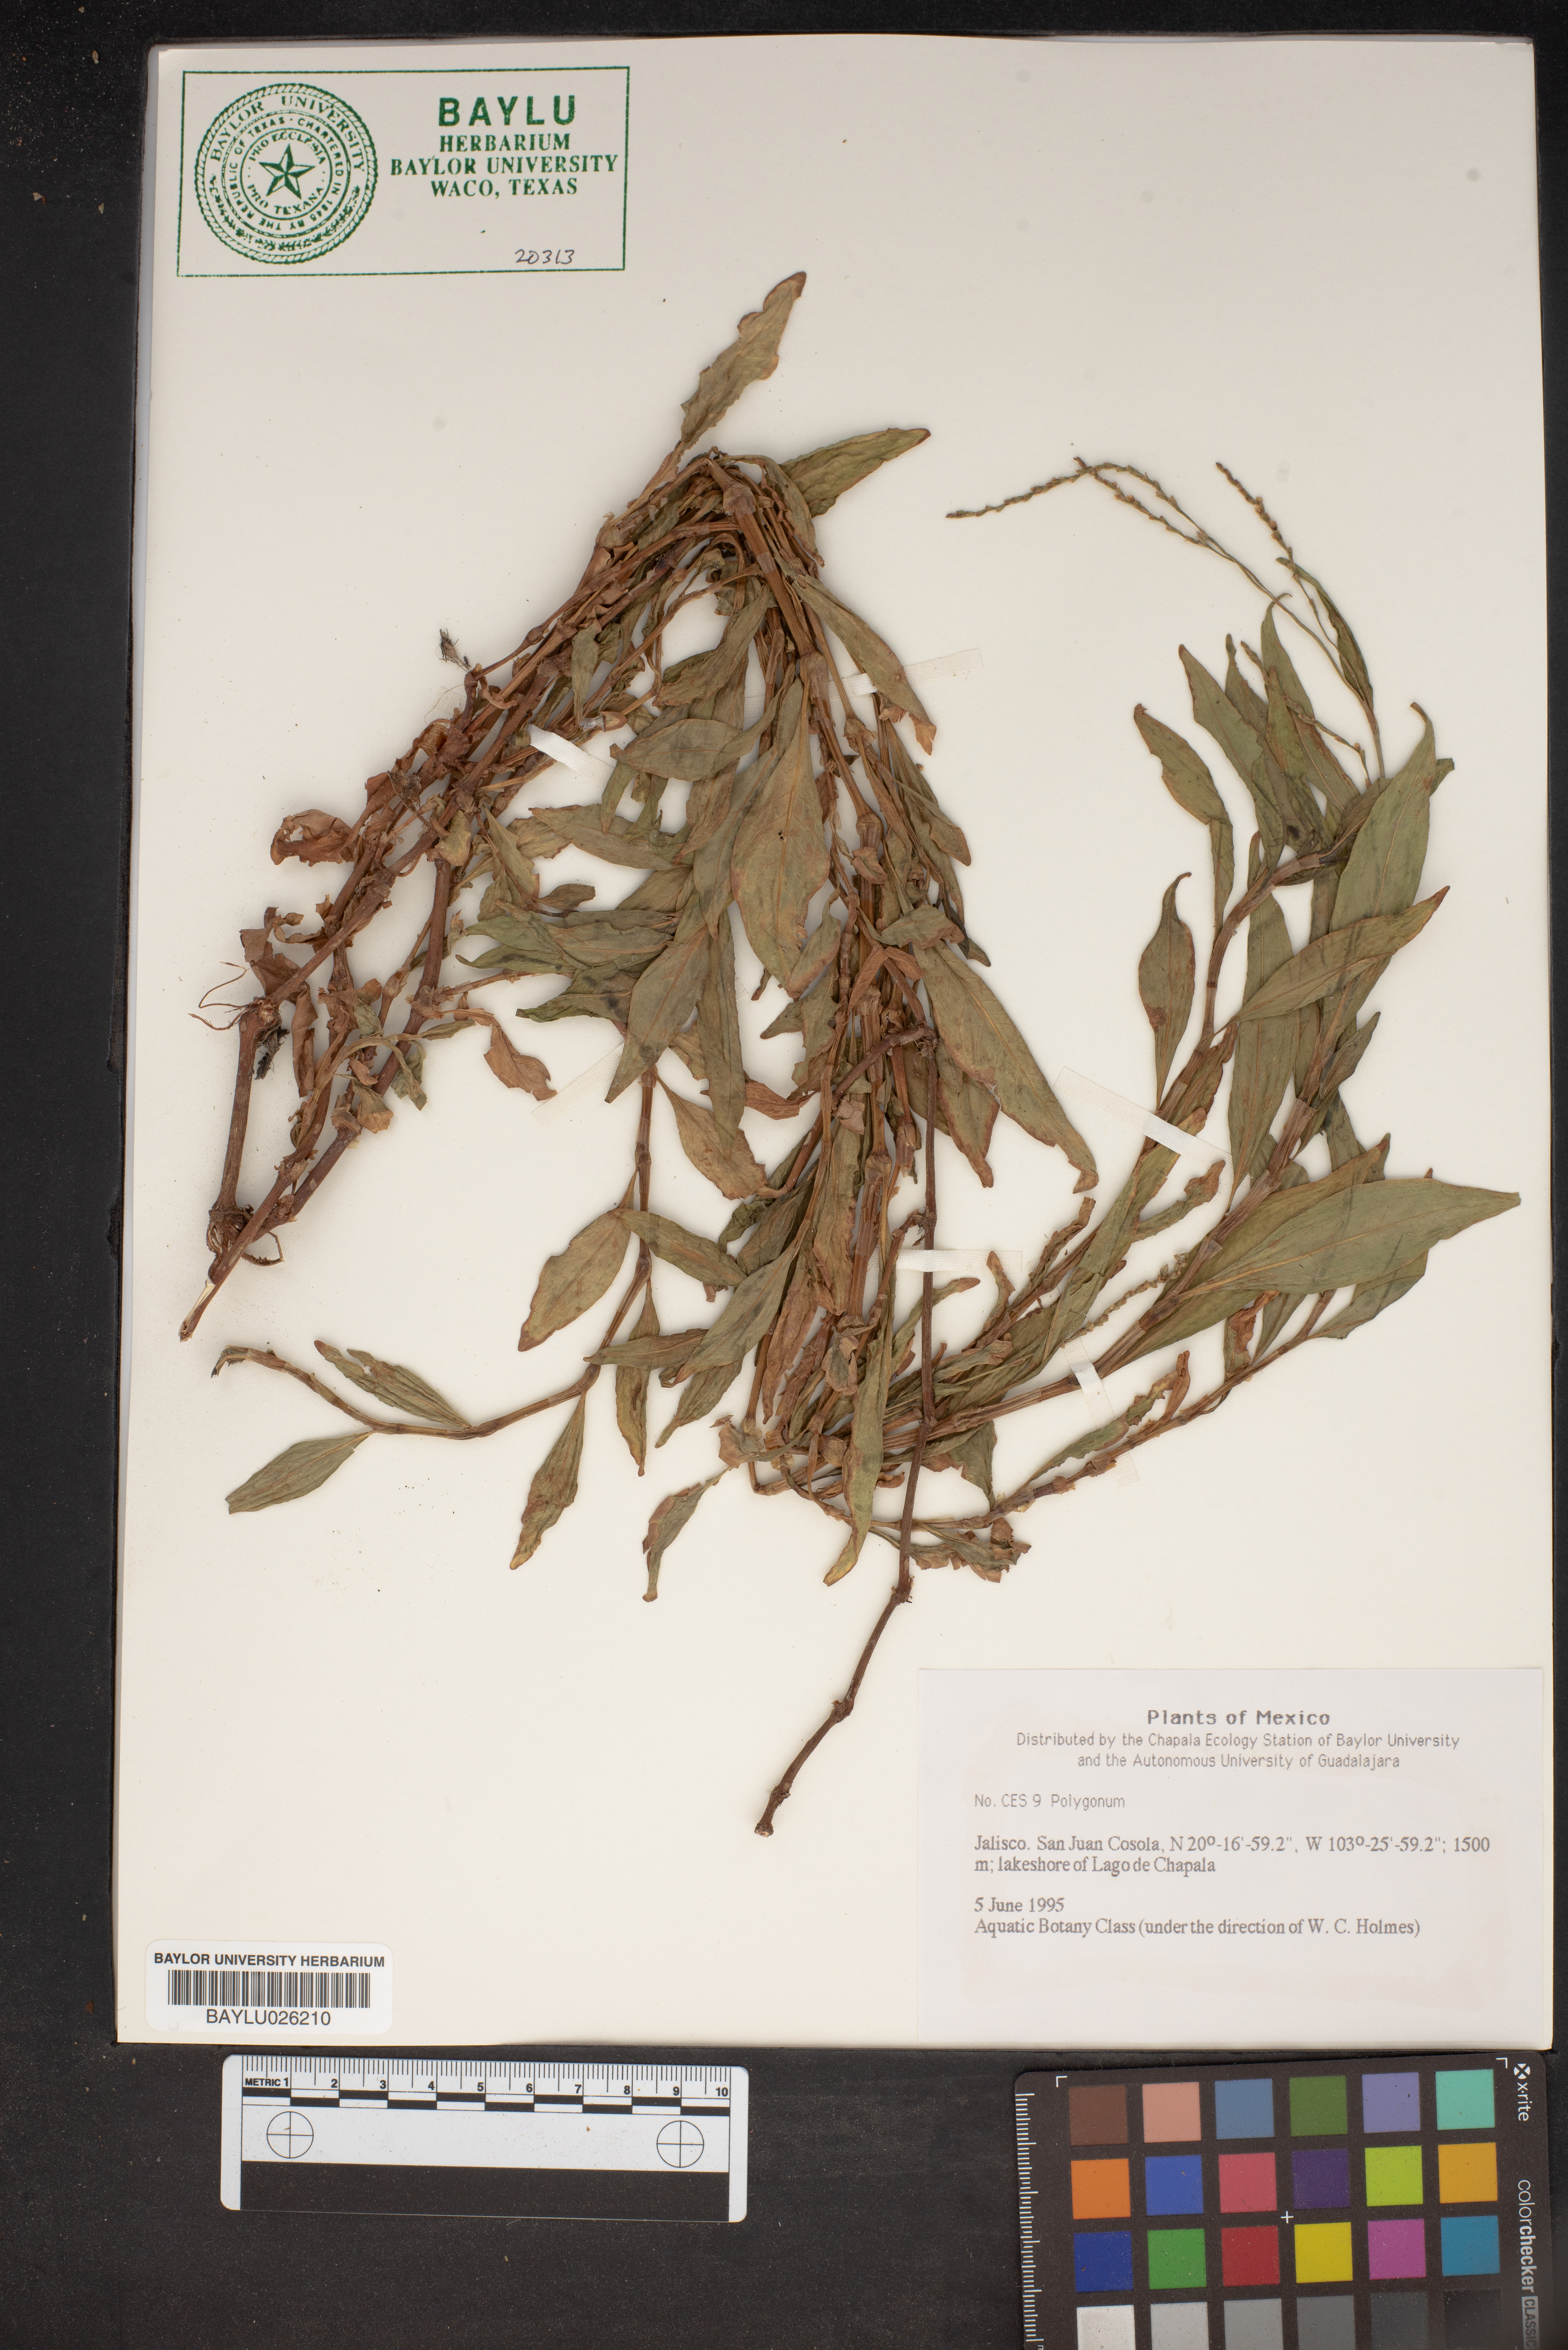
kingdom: Plantae
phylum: Tracheophyta
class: Magnoliopsida
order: Caryophyllales
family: Polygonaceae
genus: Polygonum
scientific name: Polygonum
